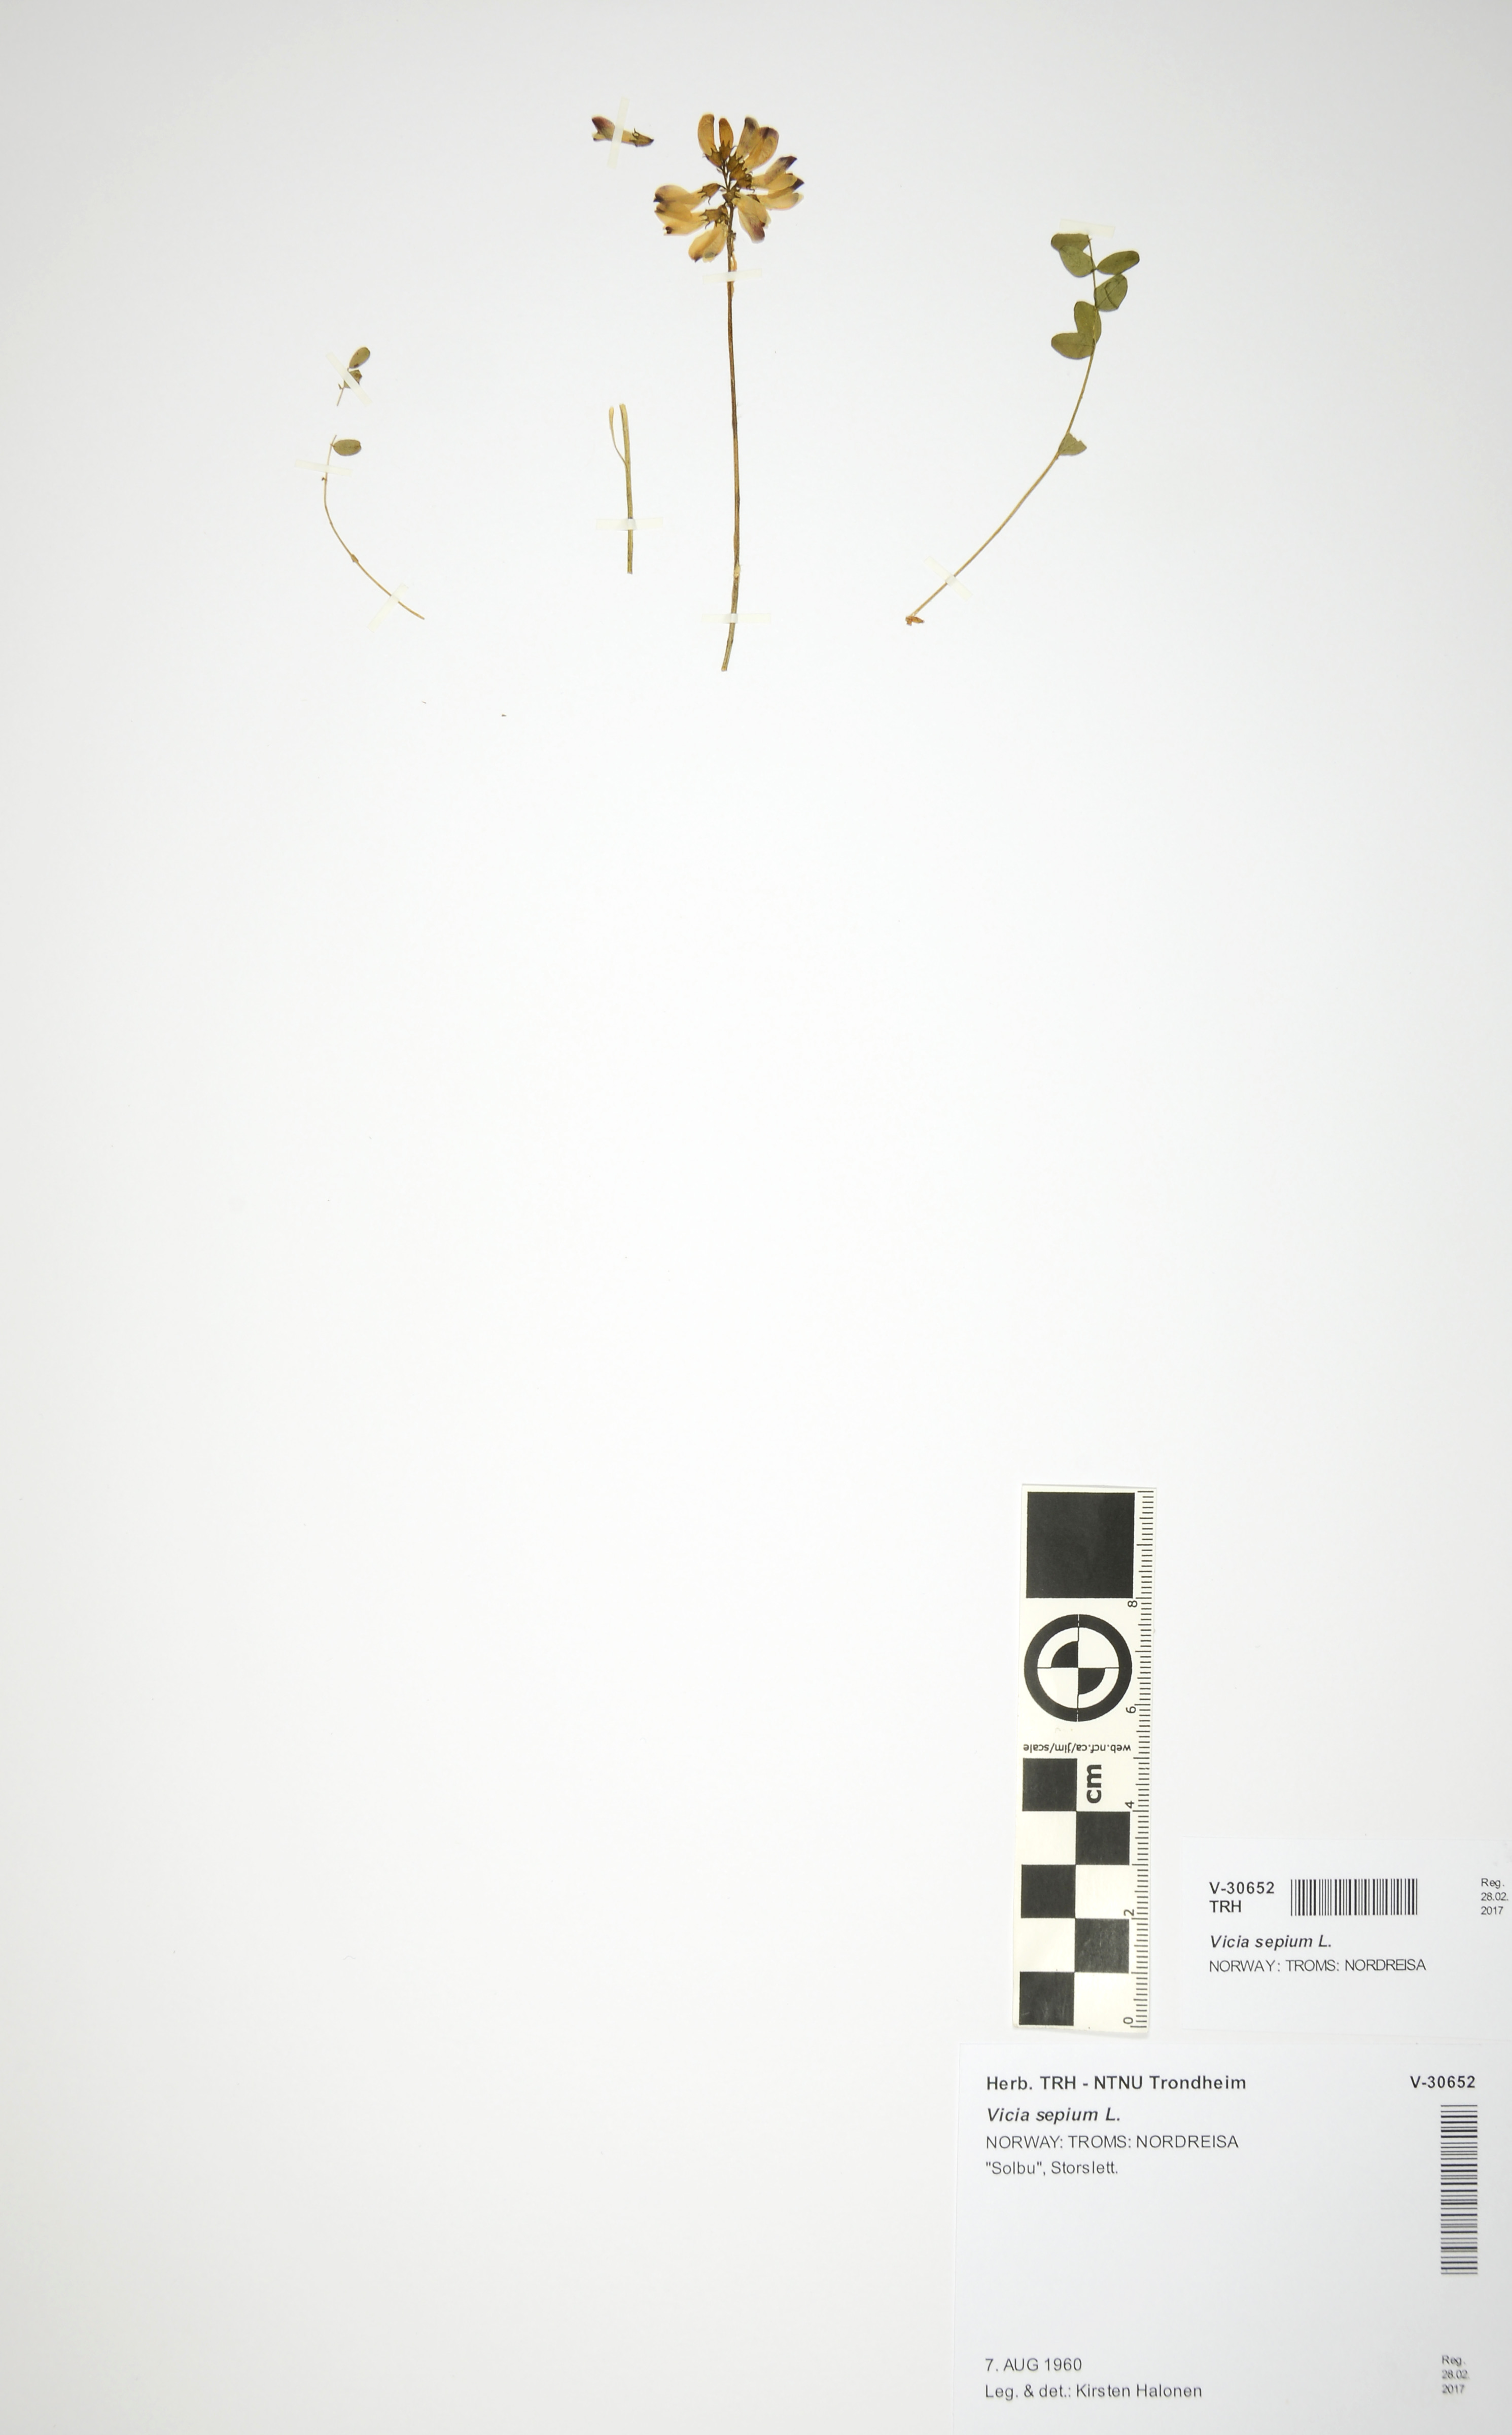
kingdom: Plantae
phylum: Tracheophyta
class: Magnoliopsida
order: Fabales
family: Fabaceae
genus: Vicia
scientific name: Vicia sepium
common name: Bush vetch
